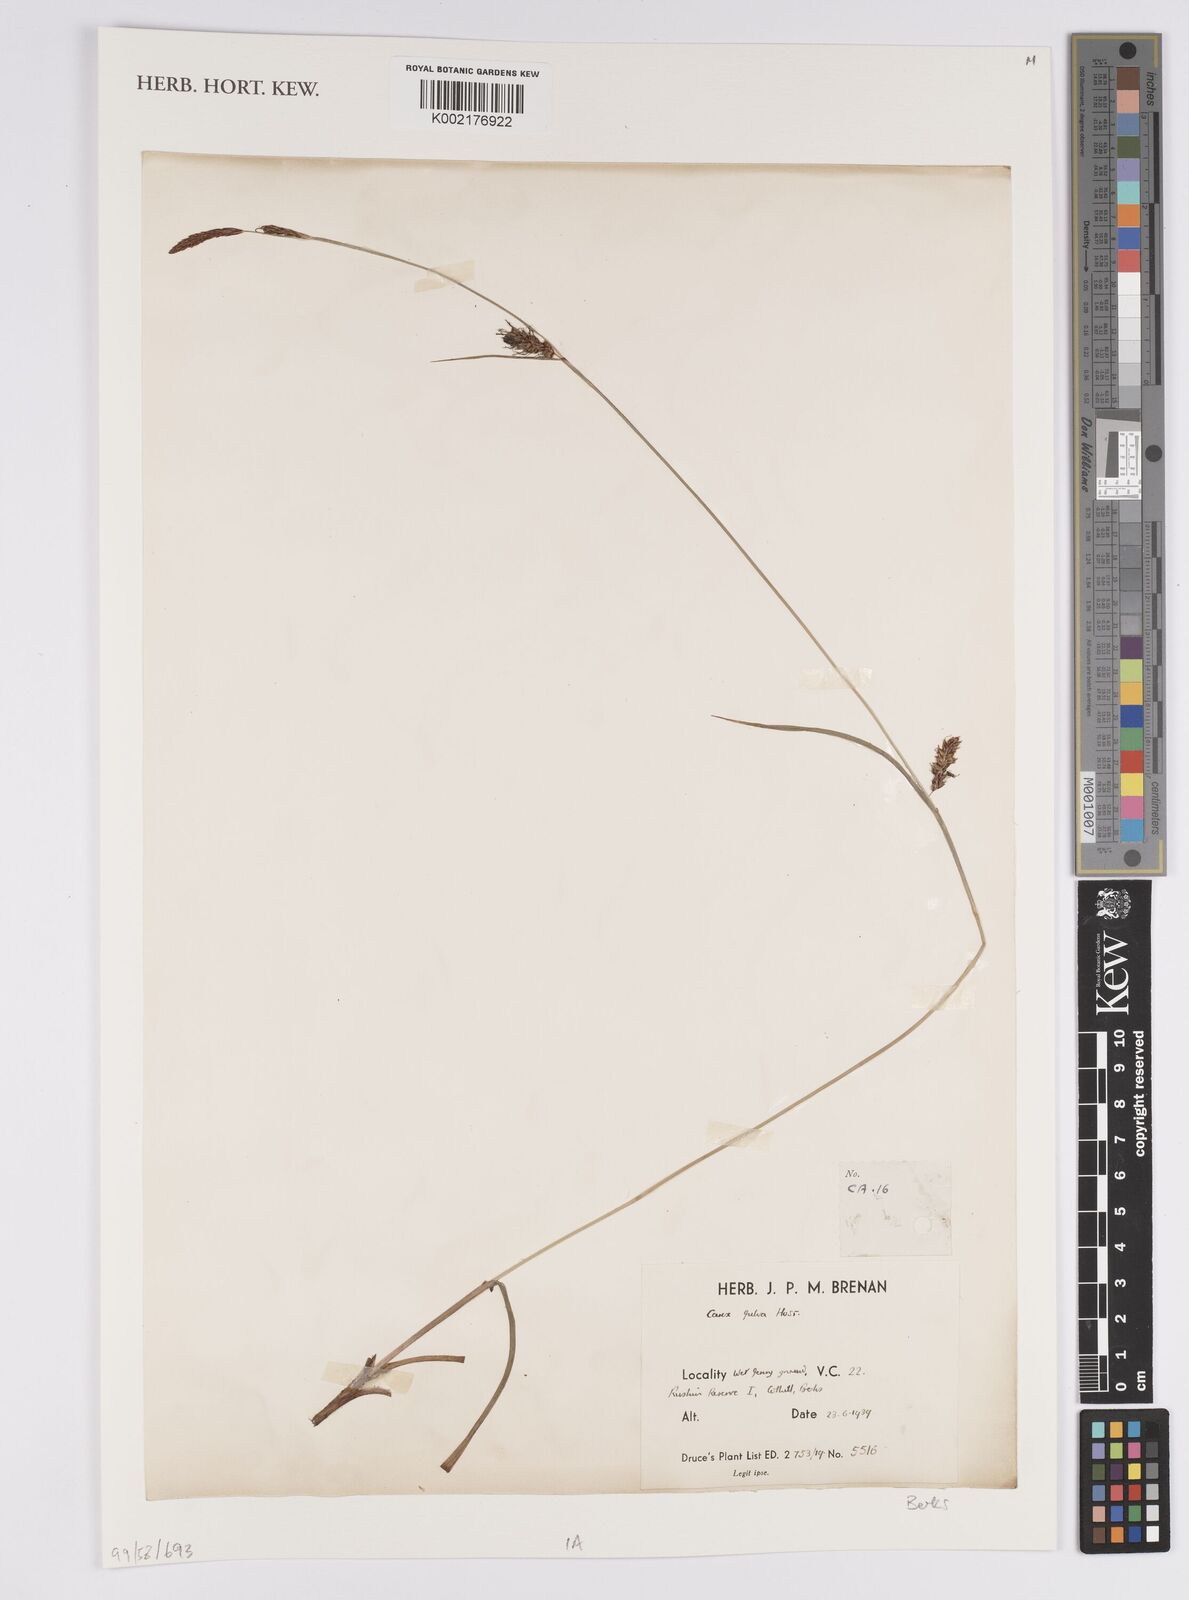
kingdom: Plantae
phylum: Tracheophyta
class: Liliopsida
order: Poales
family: Cyperaceae
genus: Carex
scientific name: Carex hostiana
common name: Tawny sedge
